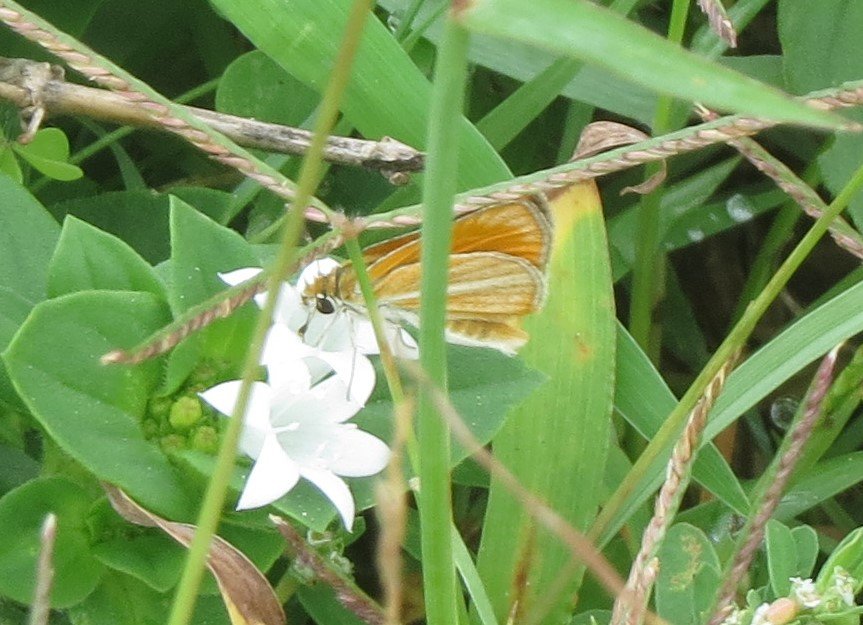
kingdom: Animalia
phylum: Arthropoda
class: Insecta
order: Lepidoptera
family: Hesperiidae
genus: Copaeodes
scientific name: Copaeodes minima
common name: Southern Skipperling
